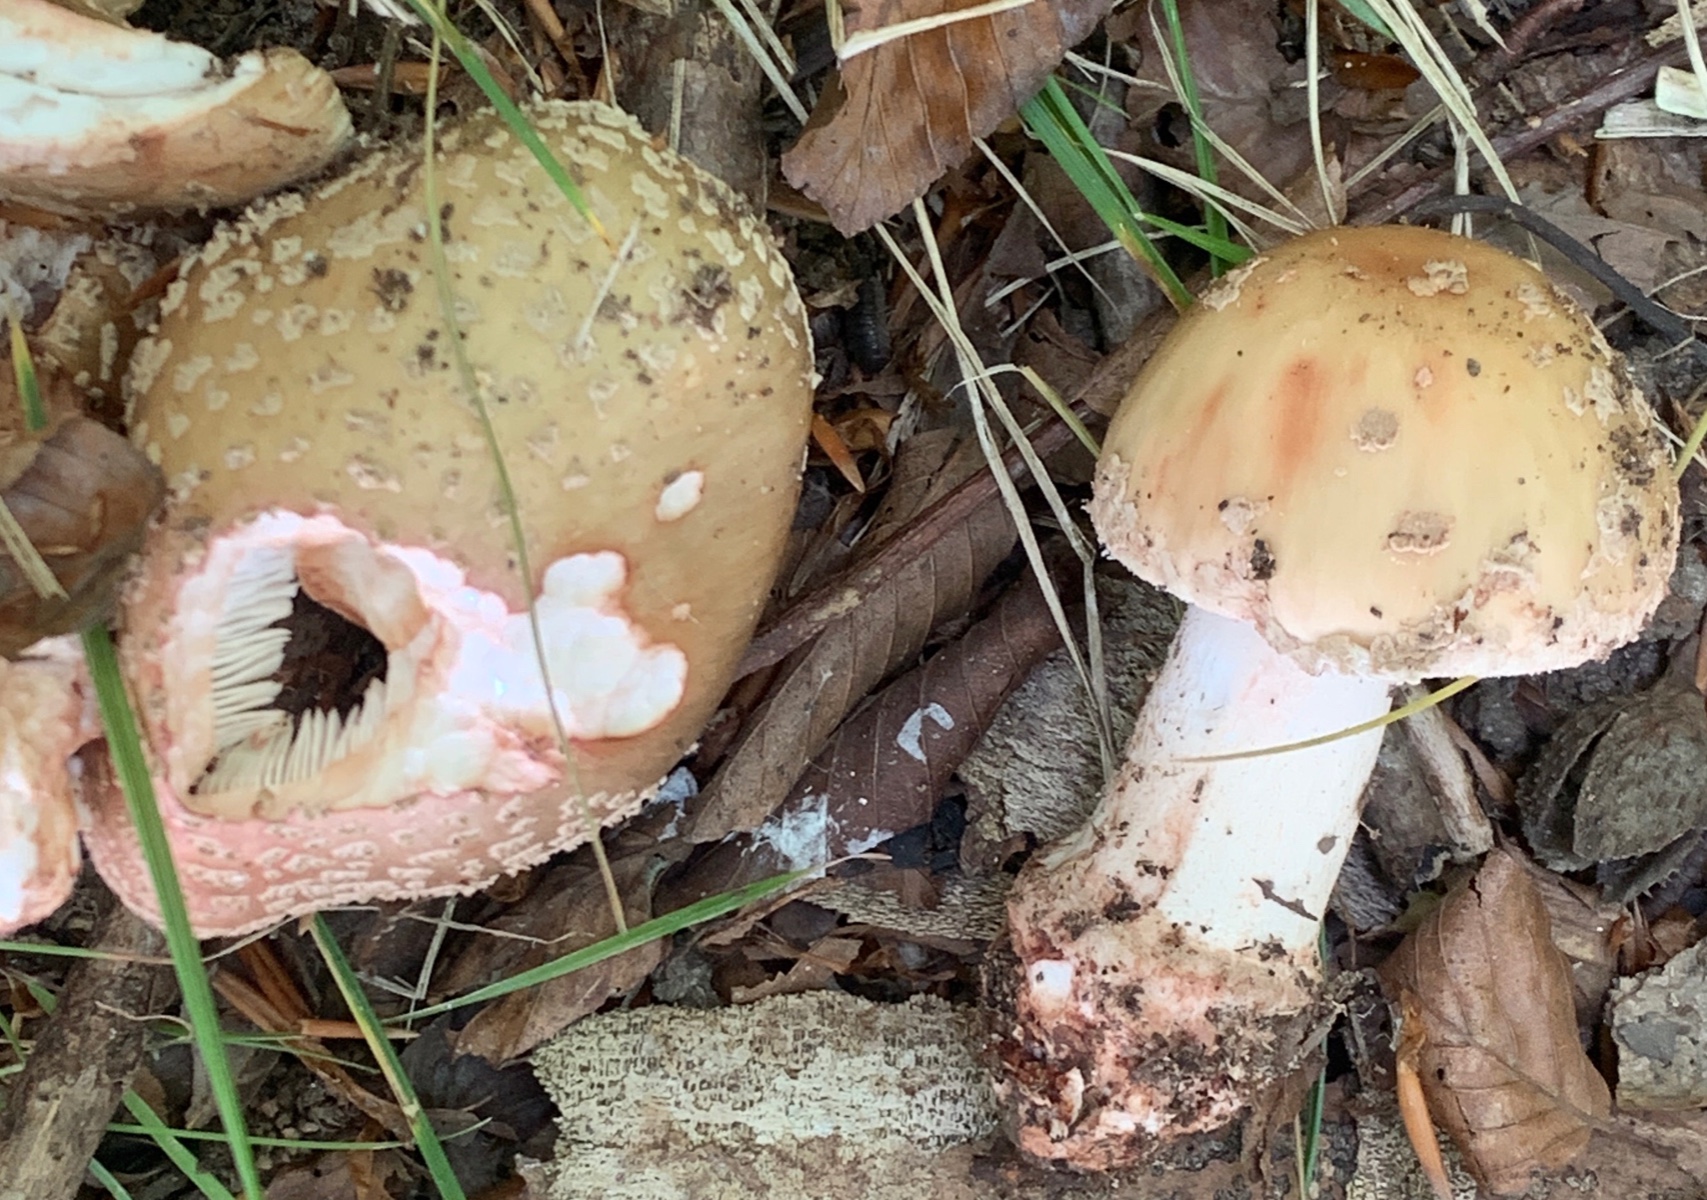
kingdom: Fungi
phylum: Basidiomycota
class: Agaricomycetes
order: Agaricales
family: Amanitaceae
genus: Amanita
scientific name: Amanita rubescens
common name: rødmende fluesvamp
